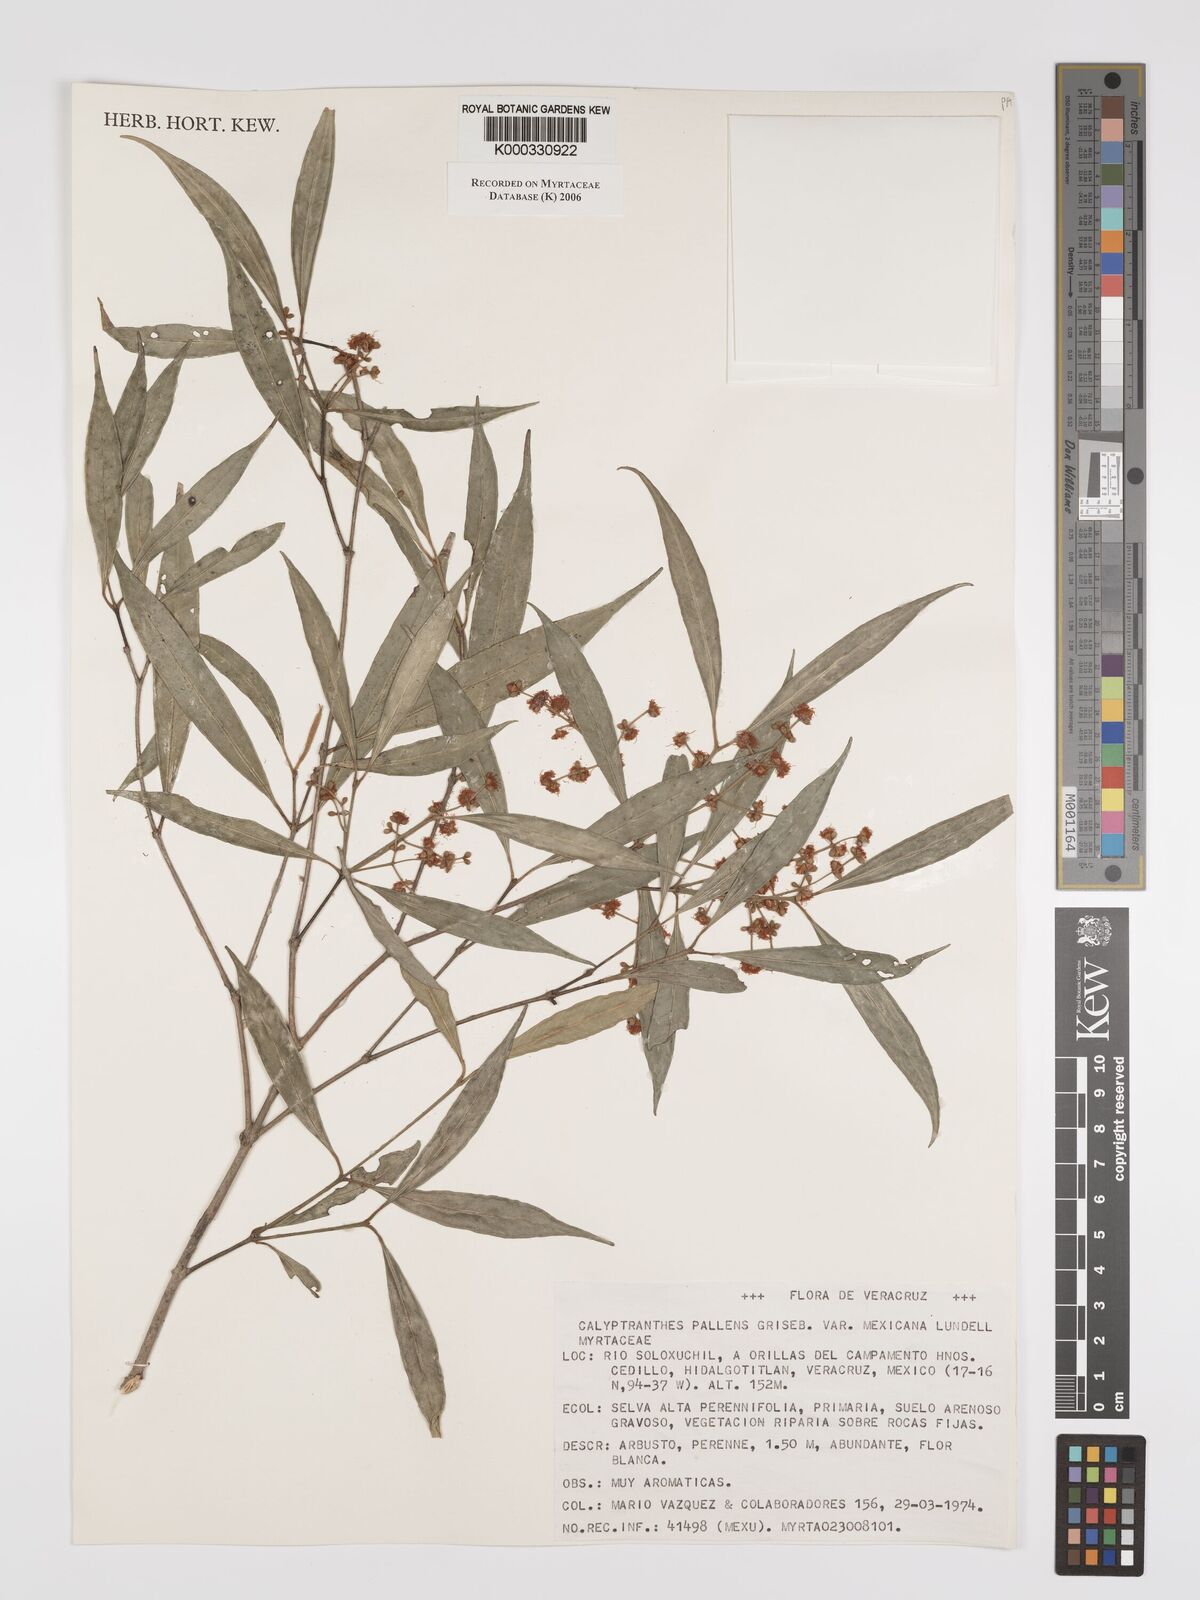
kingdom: Plantae
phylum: Tracheophyta
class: Magnoliopsida
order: Myrtales
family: Myrtaceae
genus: Myrcia
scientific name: Myrcia neopallens
